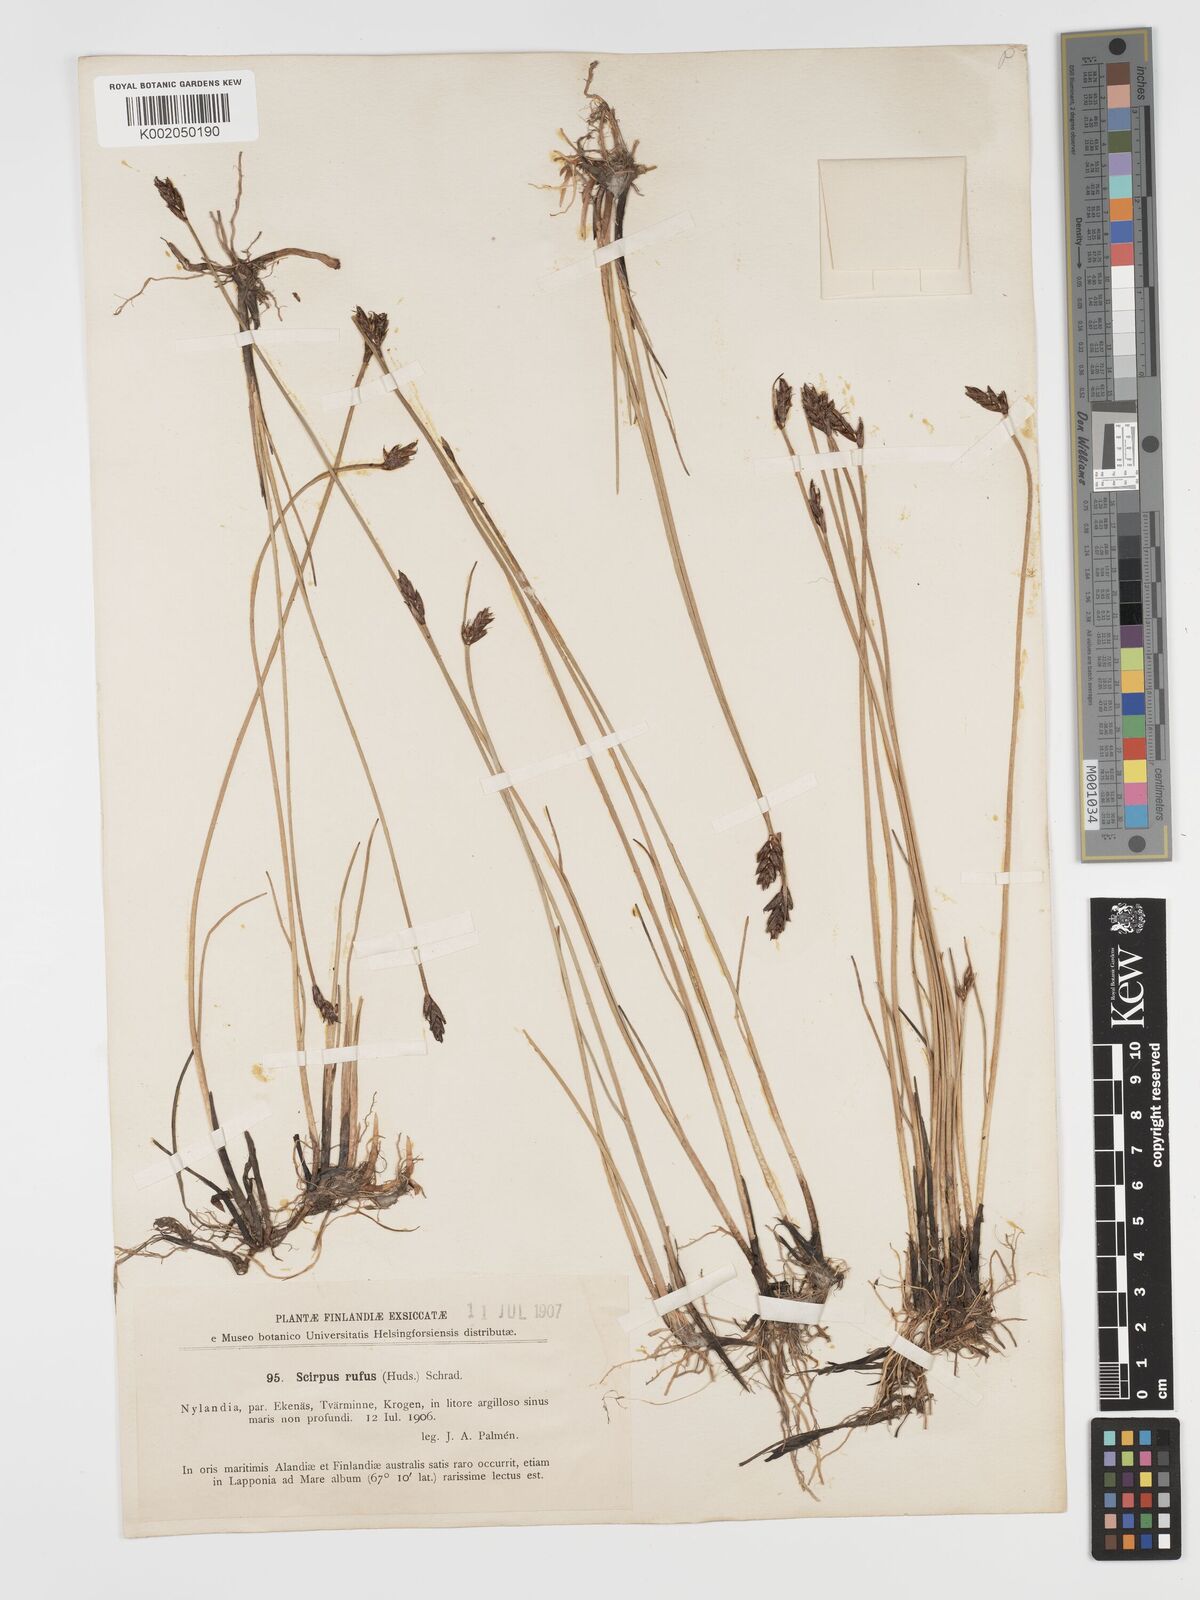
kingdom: Plantae
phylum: Tracheophyta
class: Liliopsida
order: Poales
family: Cyperaceae
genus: Blysmus
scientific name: Blysmus rufus
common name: Saltmarsh flat-sedge
